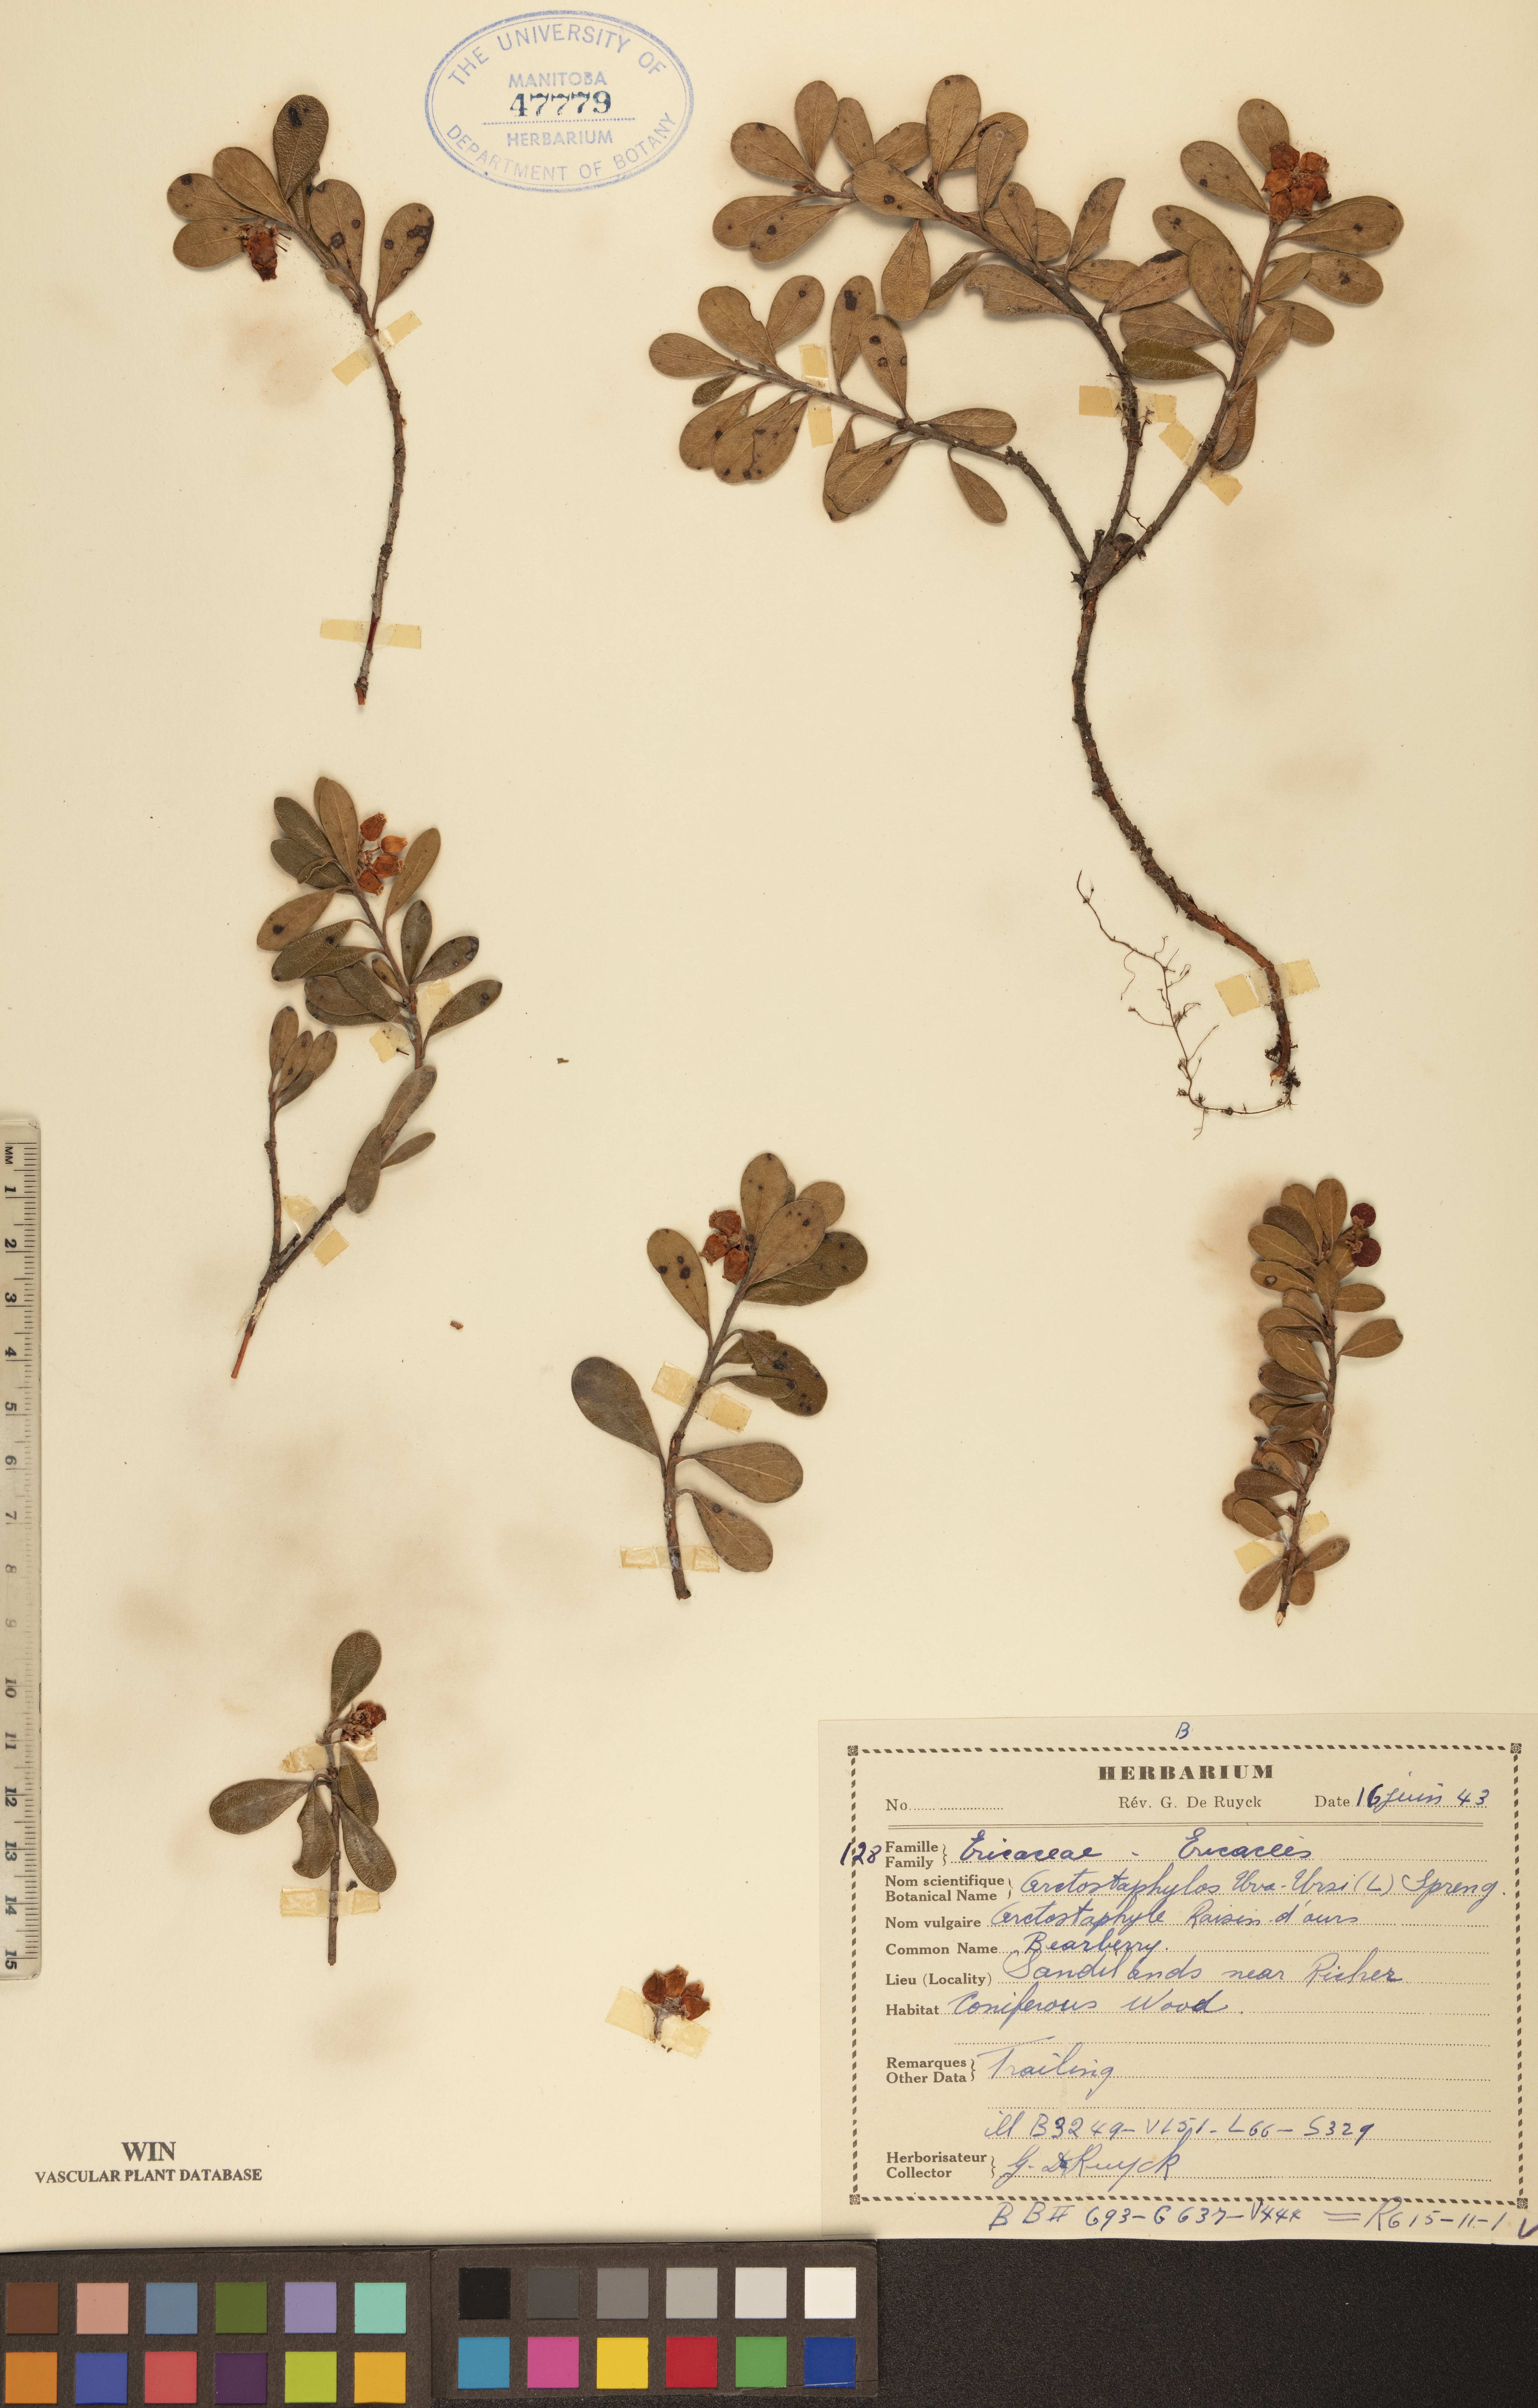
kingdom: Plantae
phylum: Tracheophyta
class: Magnoliopsida
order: Ericales
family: Ericaceae
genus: Arctostaphylos
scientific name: Arctostaphylos uva-ursi
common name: Bearberry
